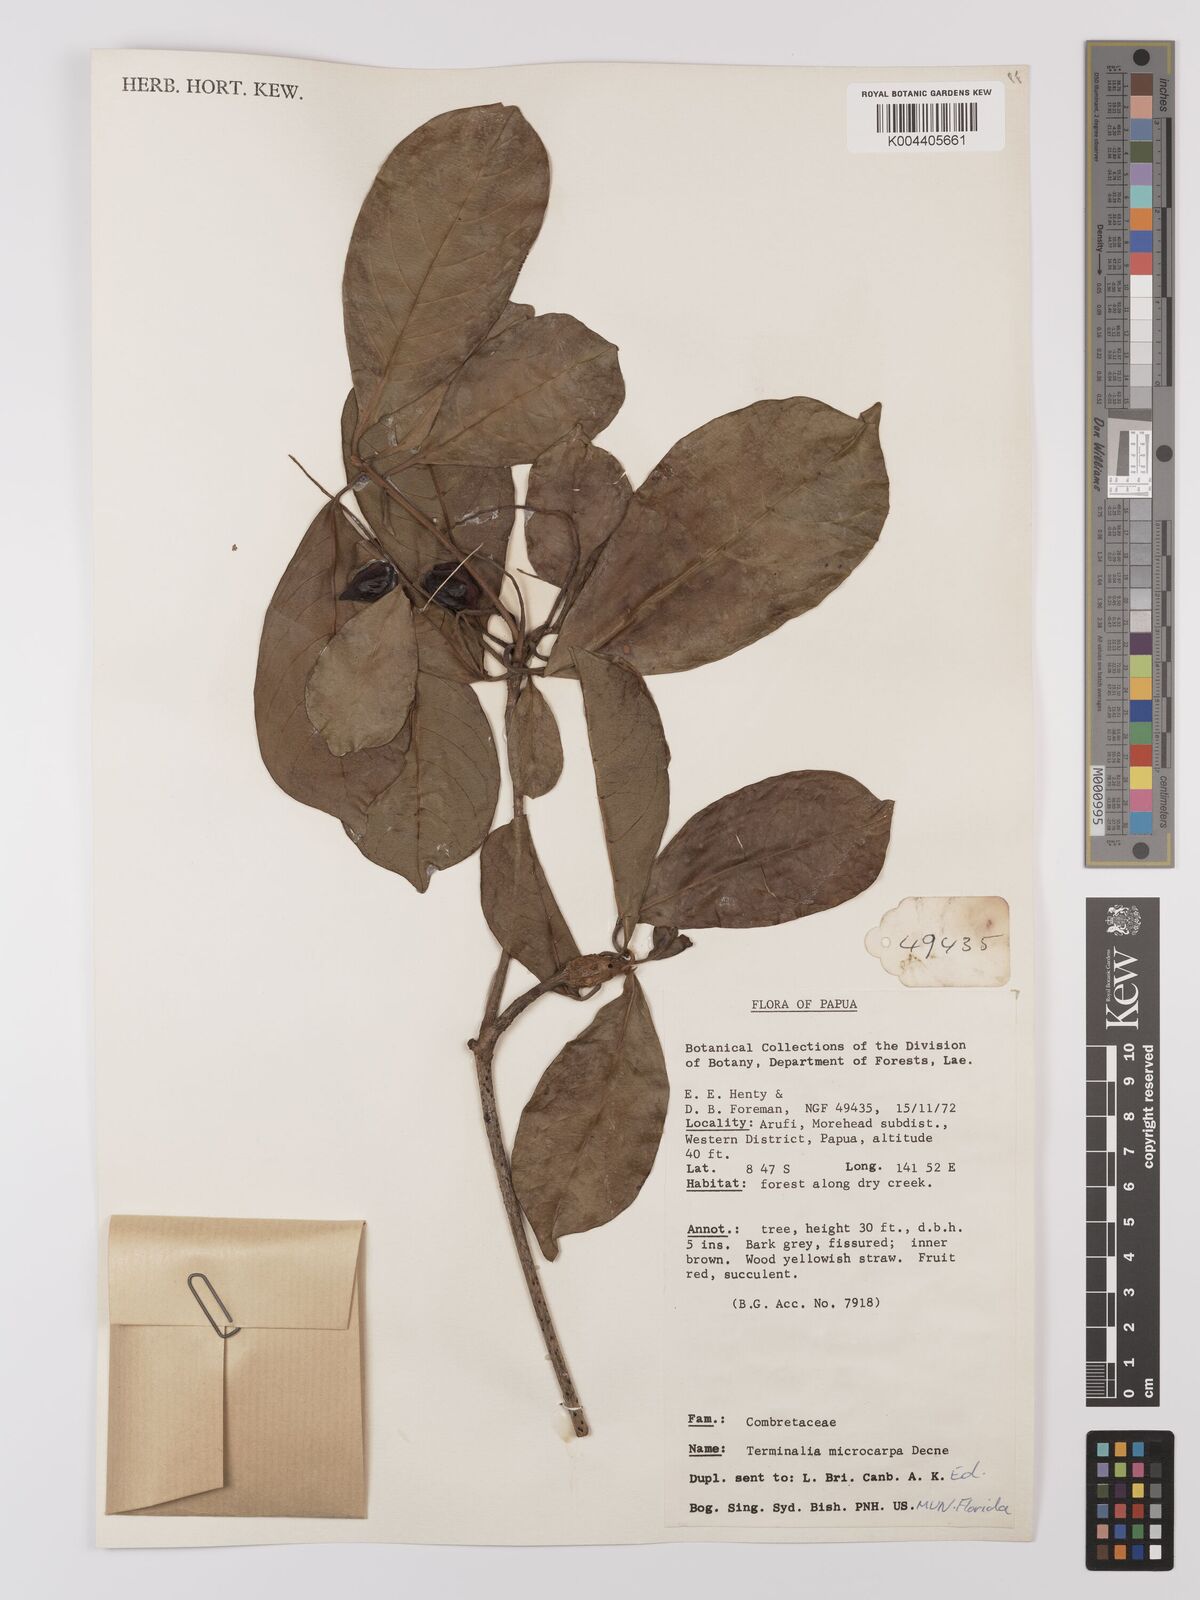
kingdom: Plantae
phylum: Tracheophyta
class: Magnoliopsida
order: Myrtales
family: Combretaceae
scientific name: Combretaceae
